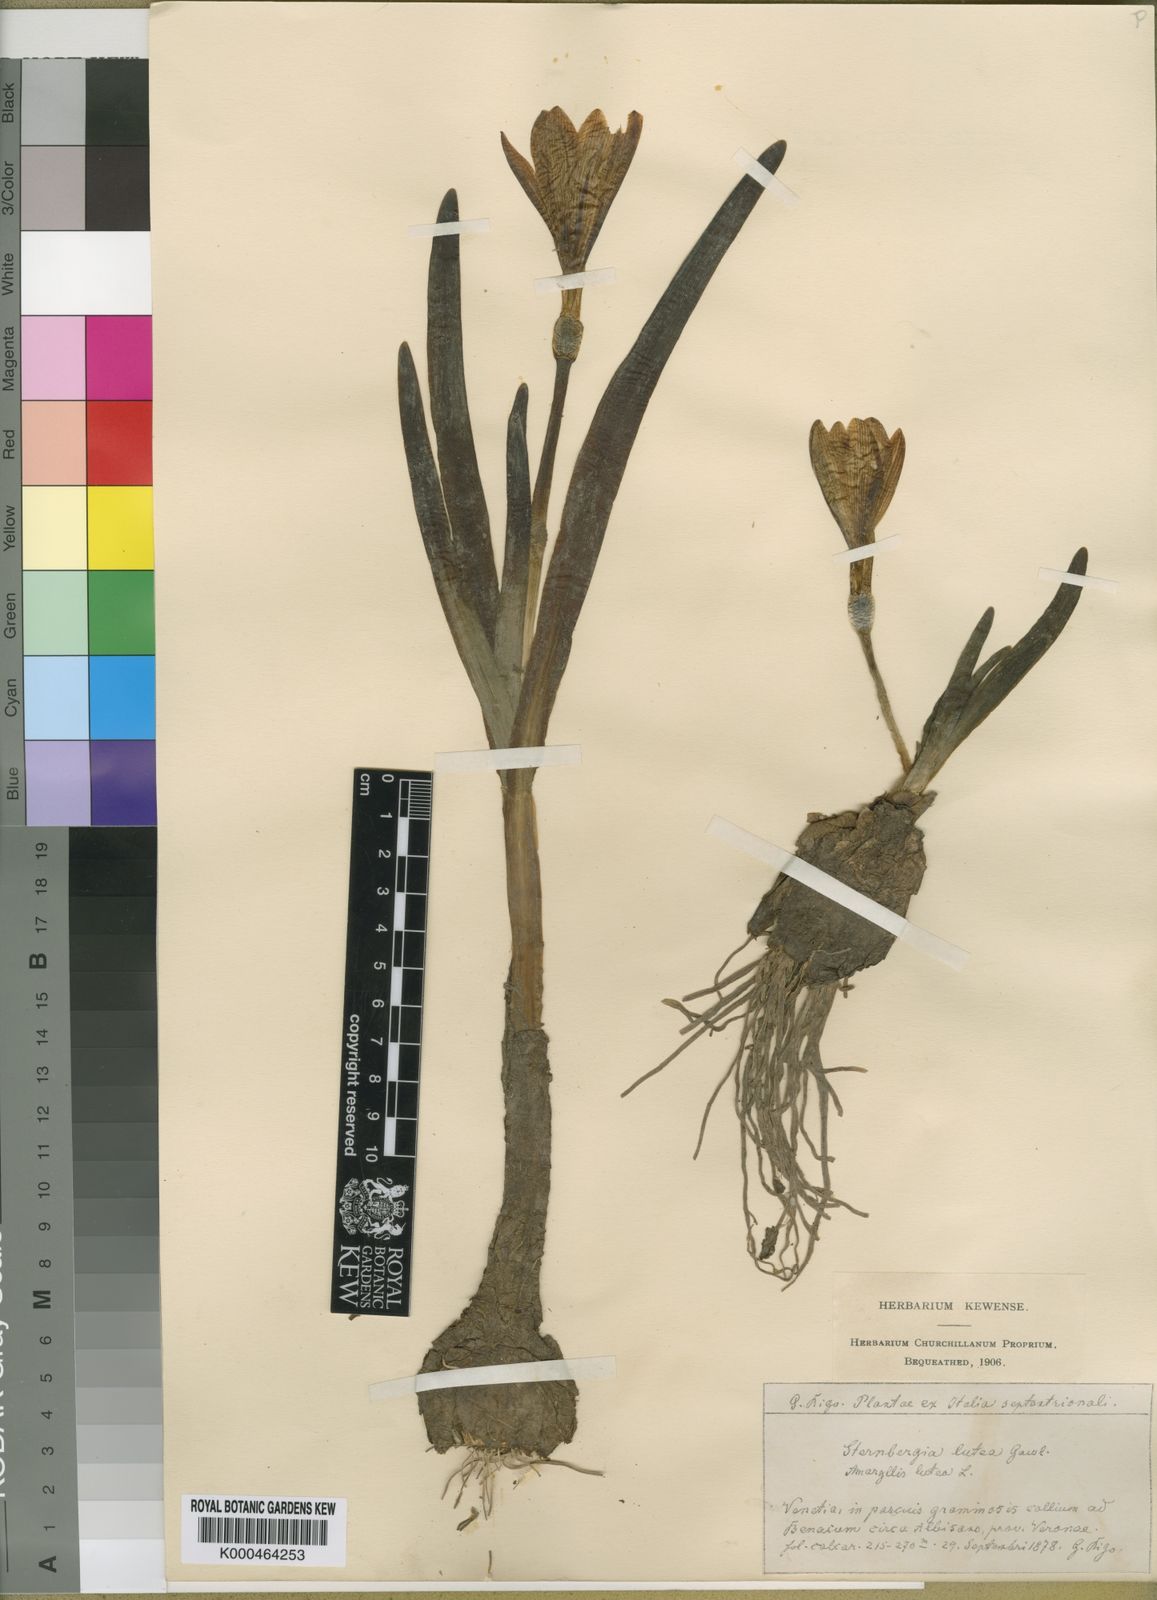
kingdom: Plantae
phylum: Tracheophyta
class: Liliopsida
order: Asparagales
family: Amaryllidaceae
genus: Sternbergia
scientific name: Sternbergia
